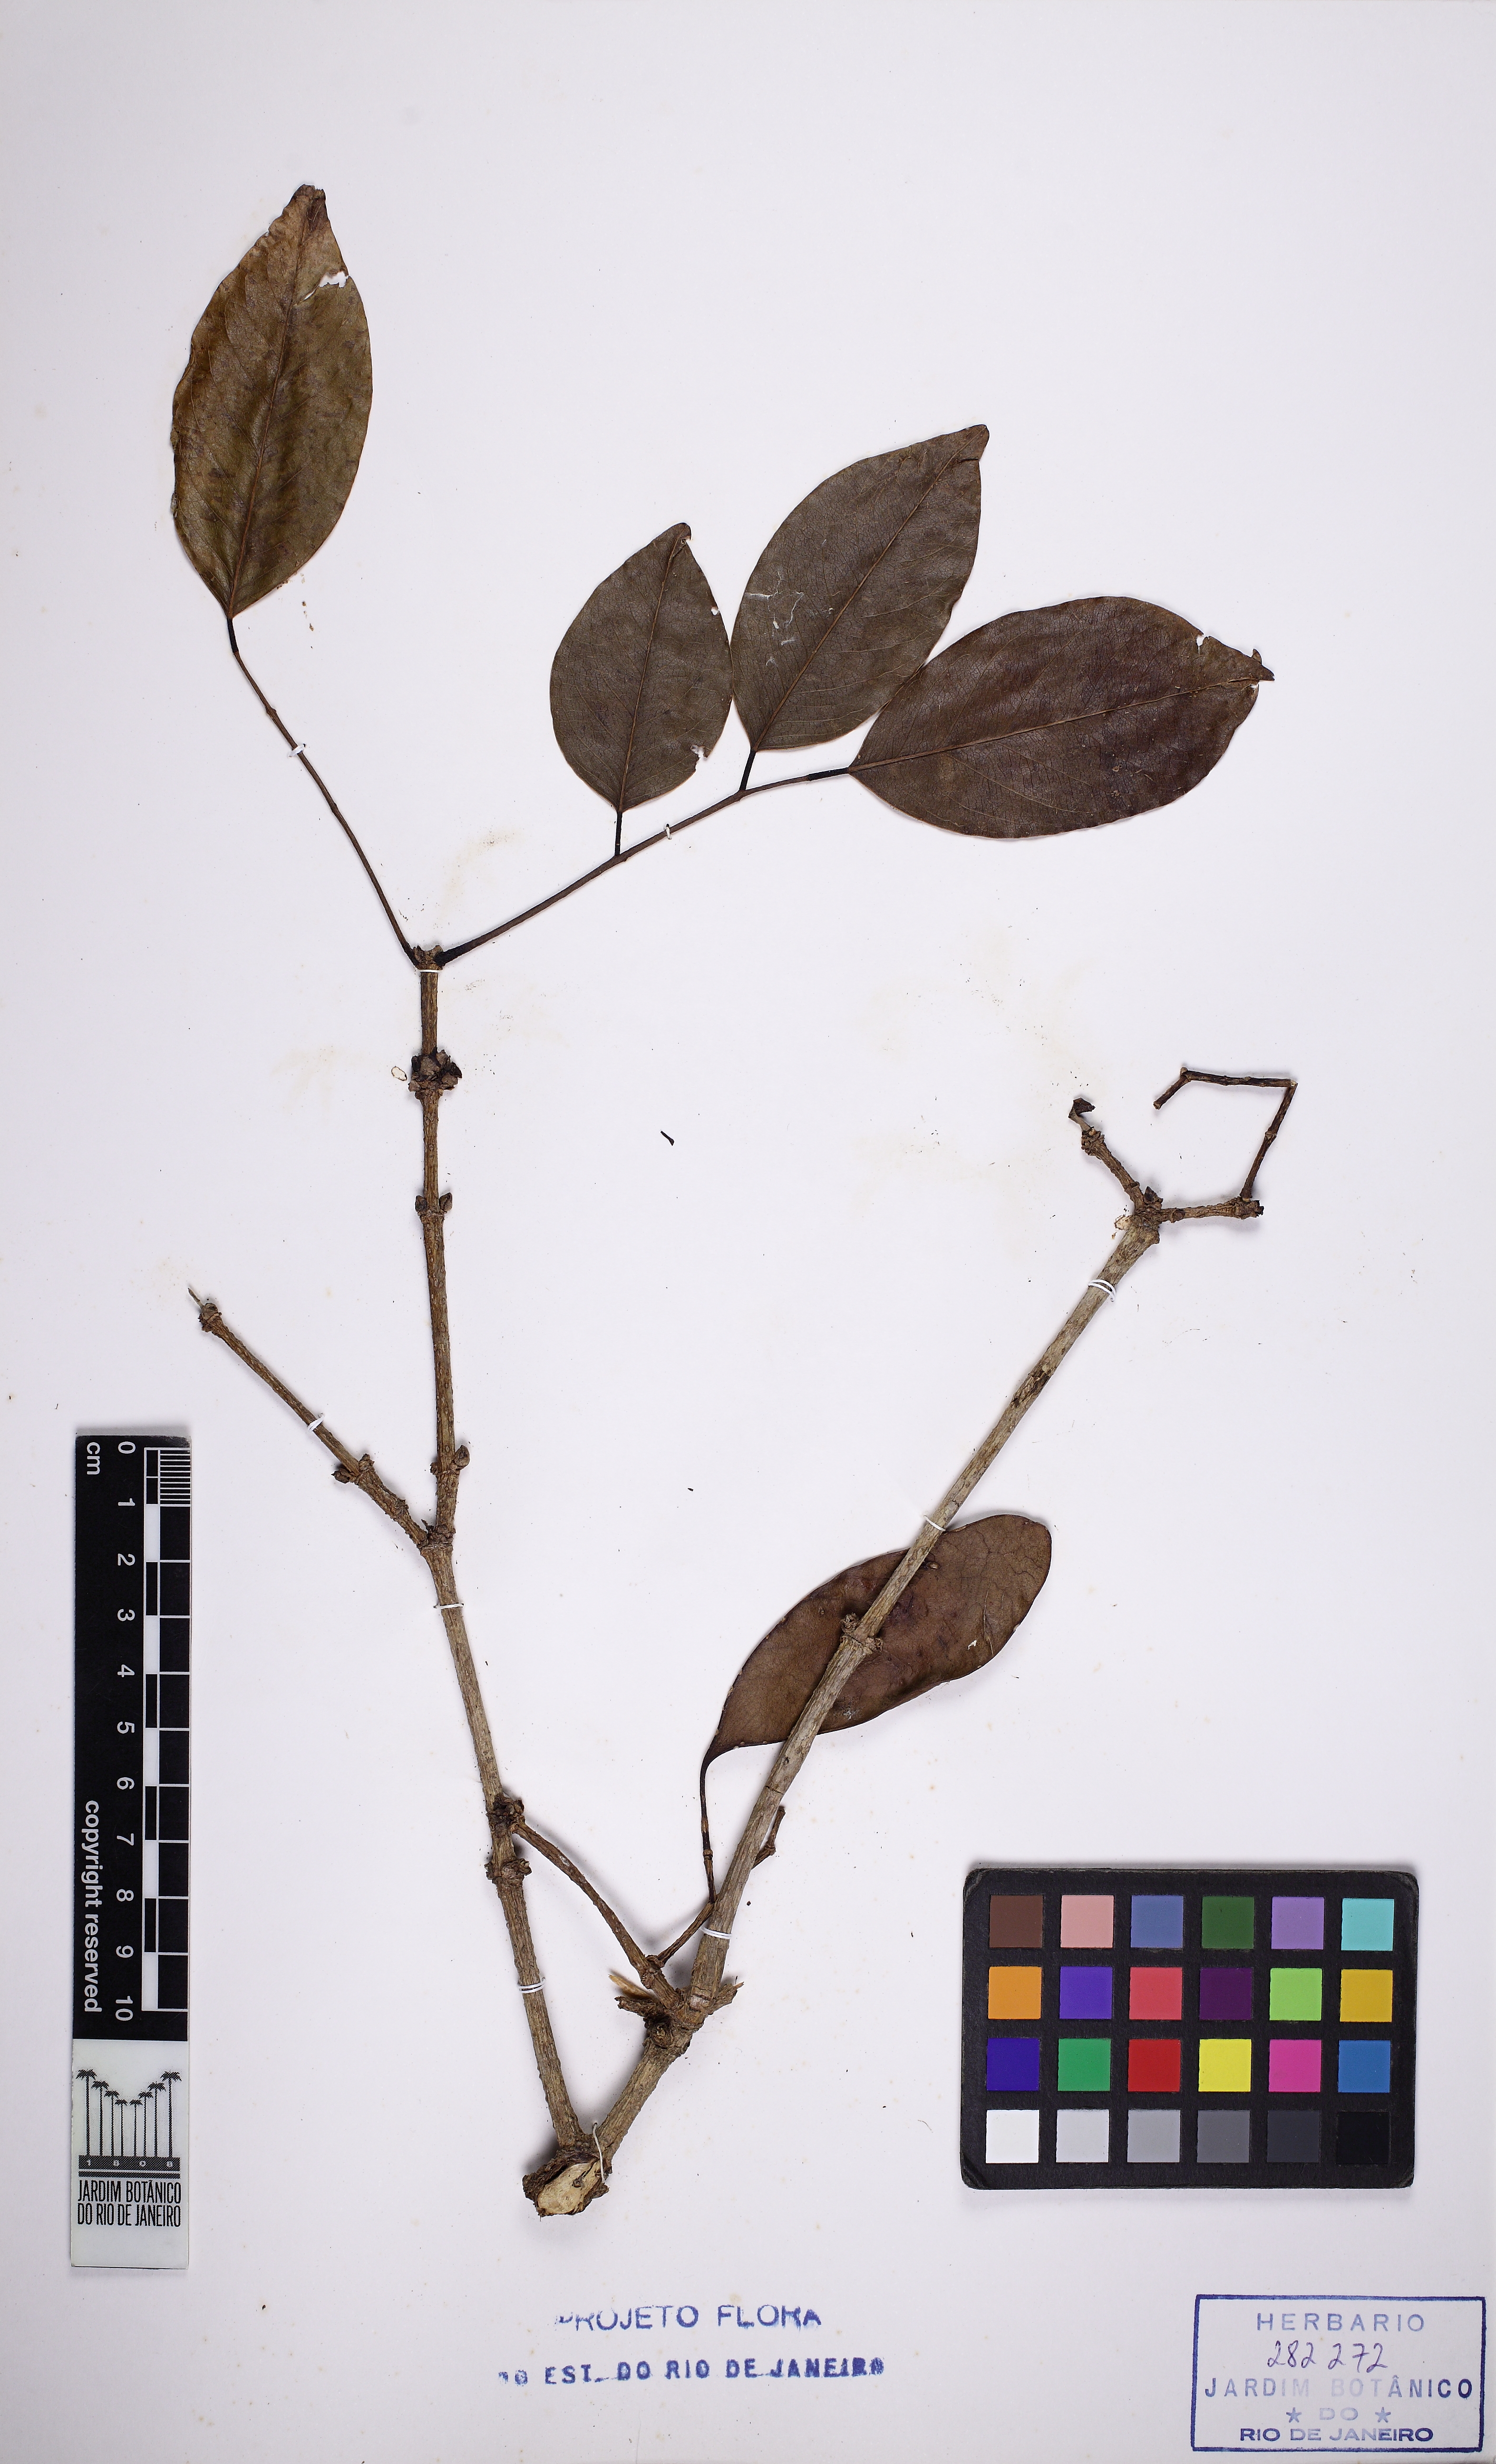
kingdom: Plantae
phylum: Tracheophyta
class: Magnoliopsida
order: Fabales
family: Fabaceae
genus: Platymiscium
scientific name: Platymiscium floribundum
